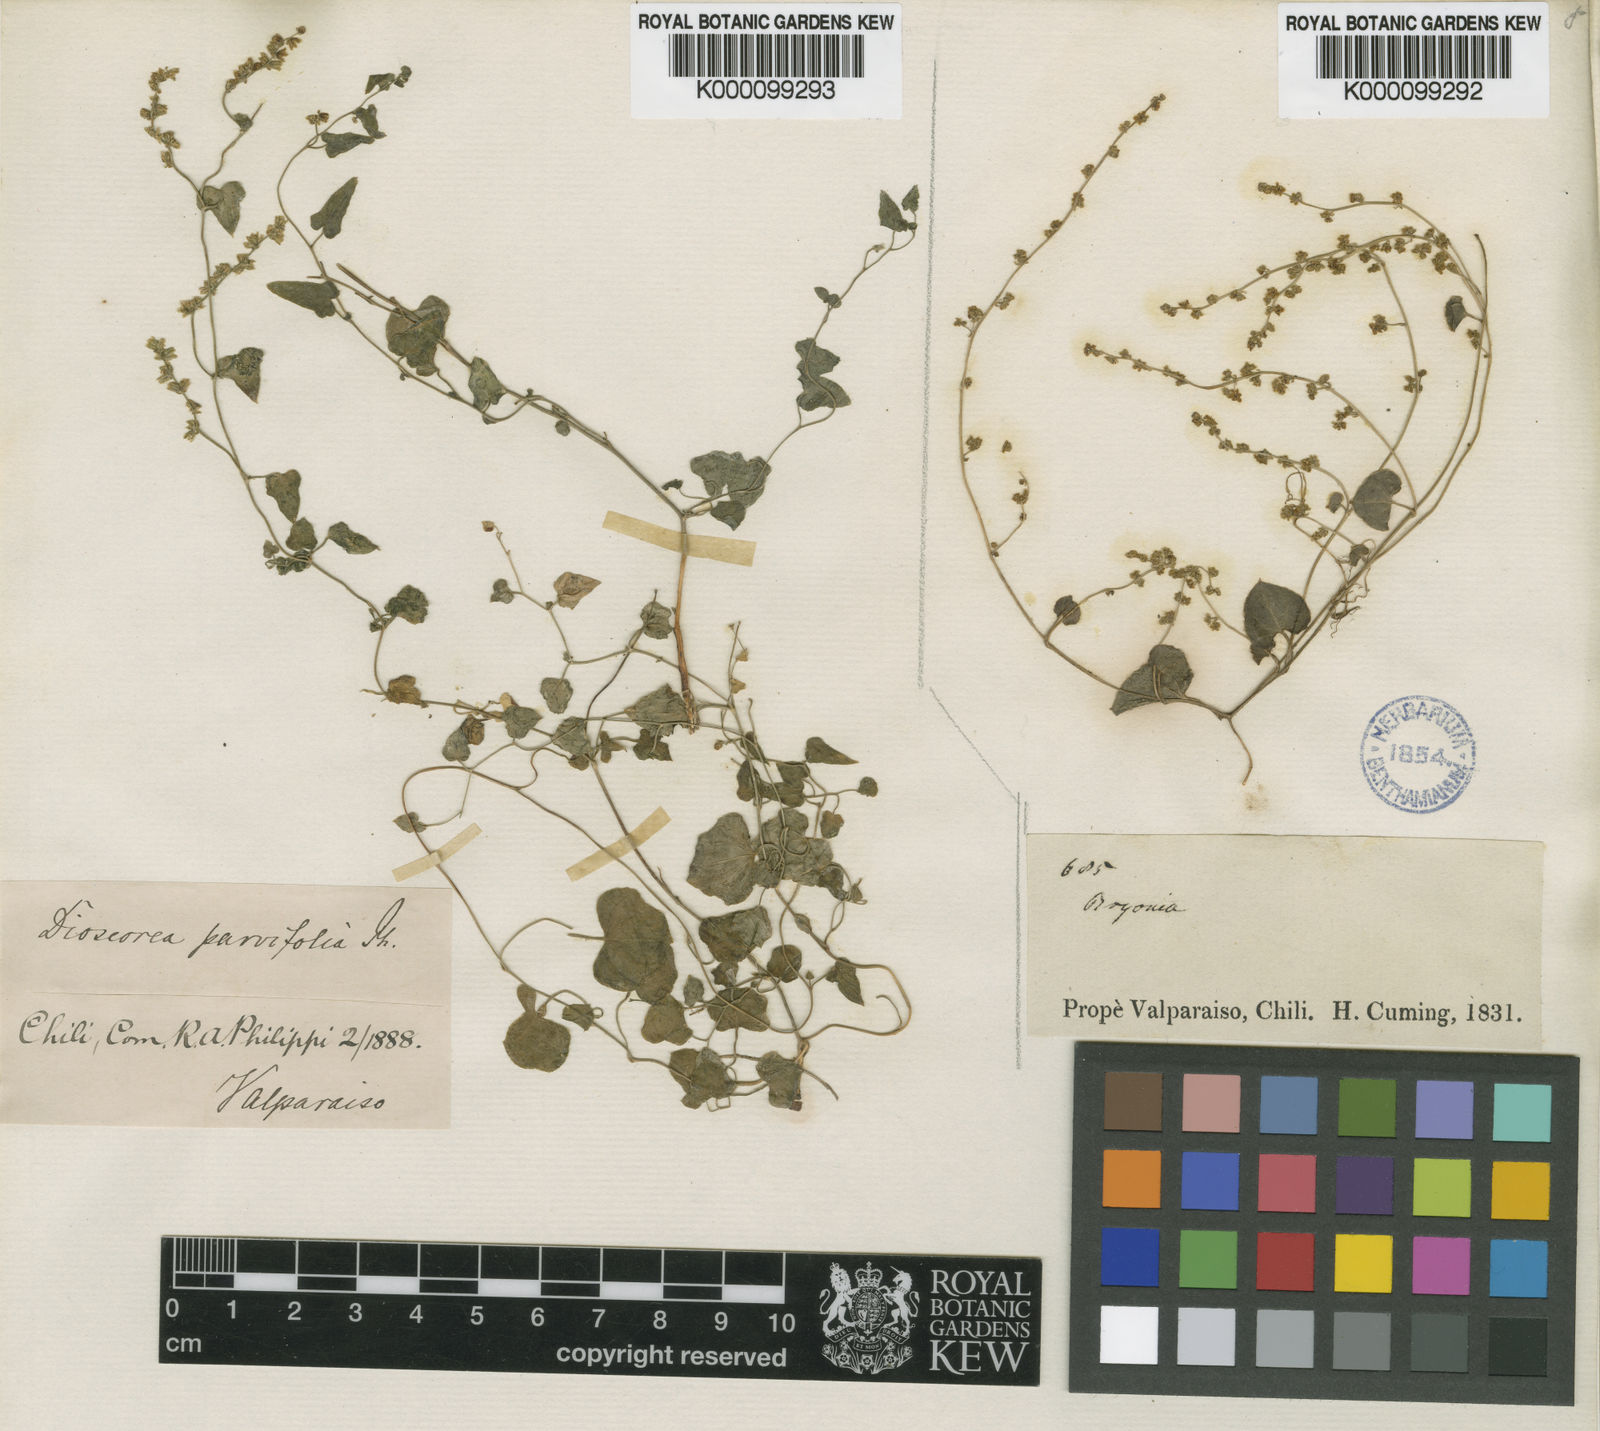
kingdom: Plantae
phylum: Tracheophyta
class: Liliopsida
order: Dioscoreales
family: Dioscoreaceae
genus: Dioscorea
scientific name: Dioscorea modesta
